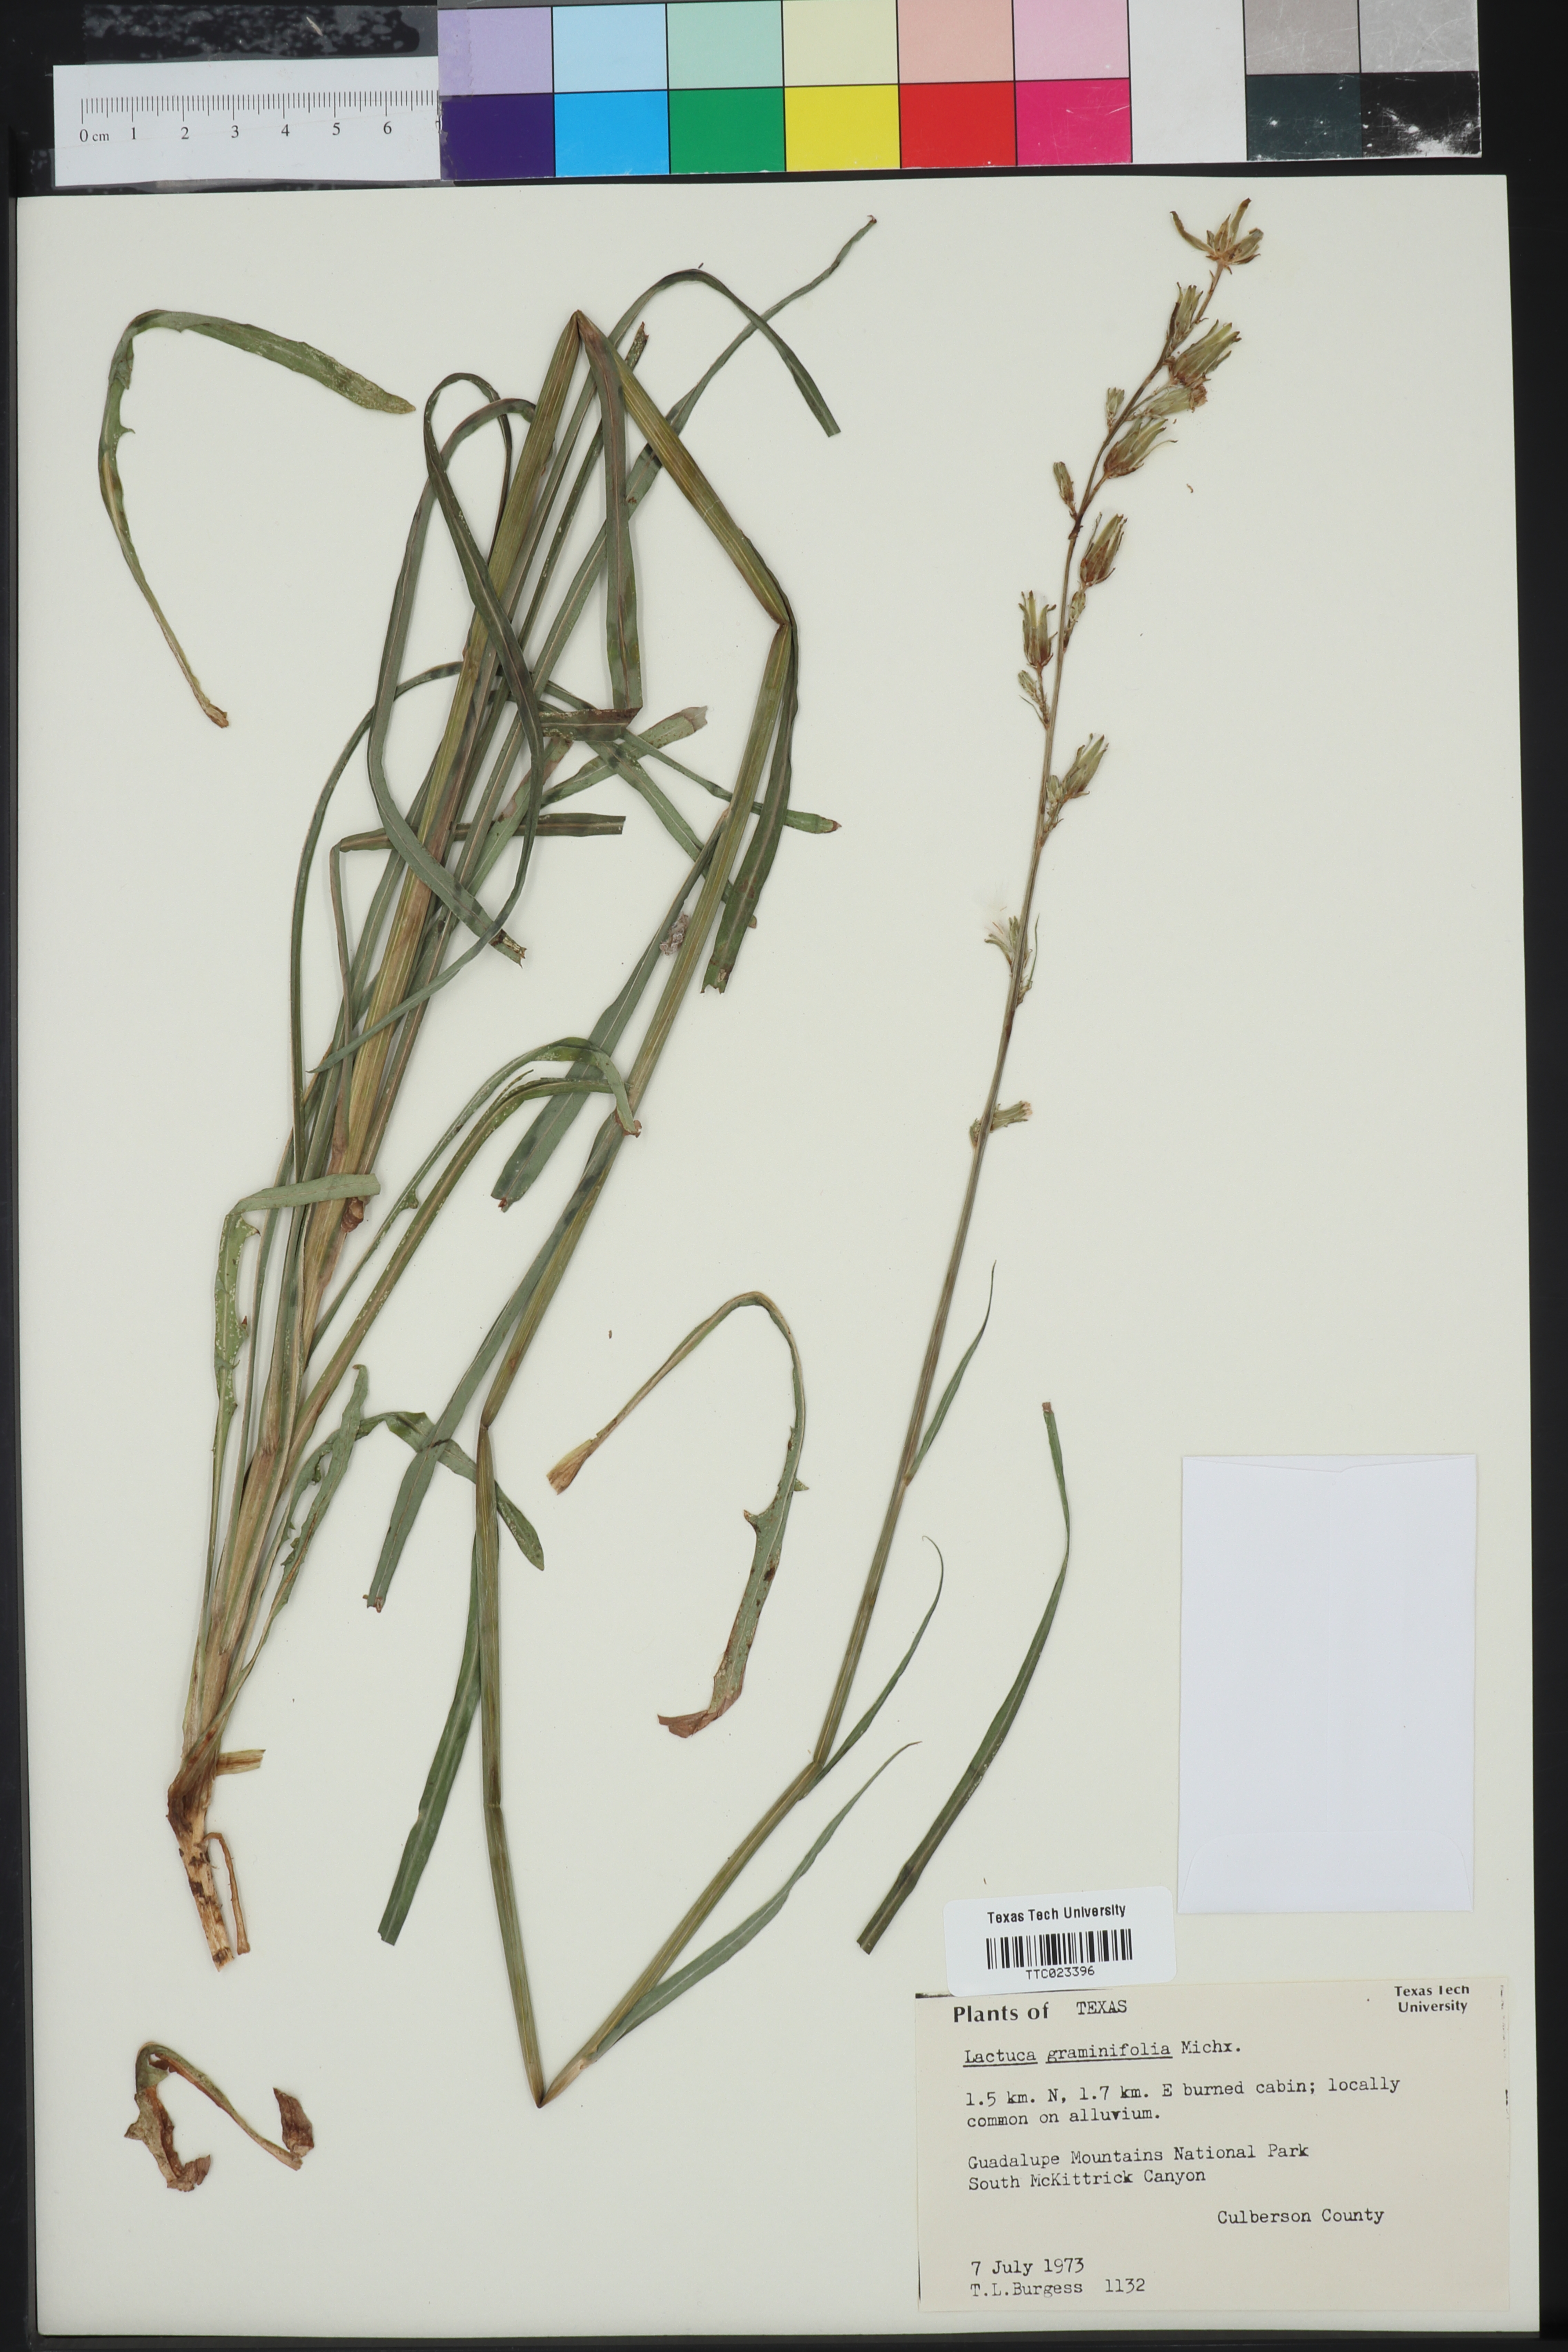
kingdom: Plantae
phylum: Tracheophyta
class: Magnoliopsida
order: Asterales
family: Asteraceae
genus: Lactuca
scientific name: Lactuca graminifolia
